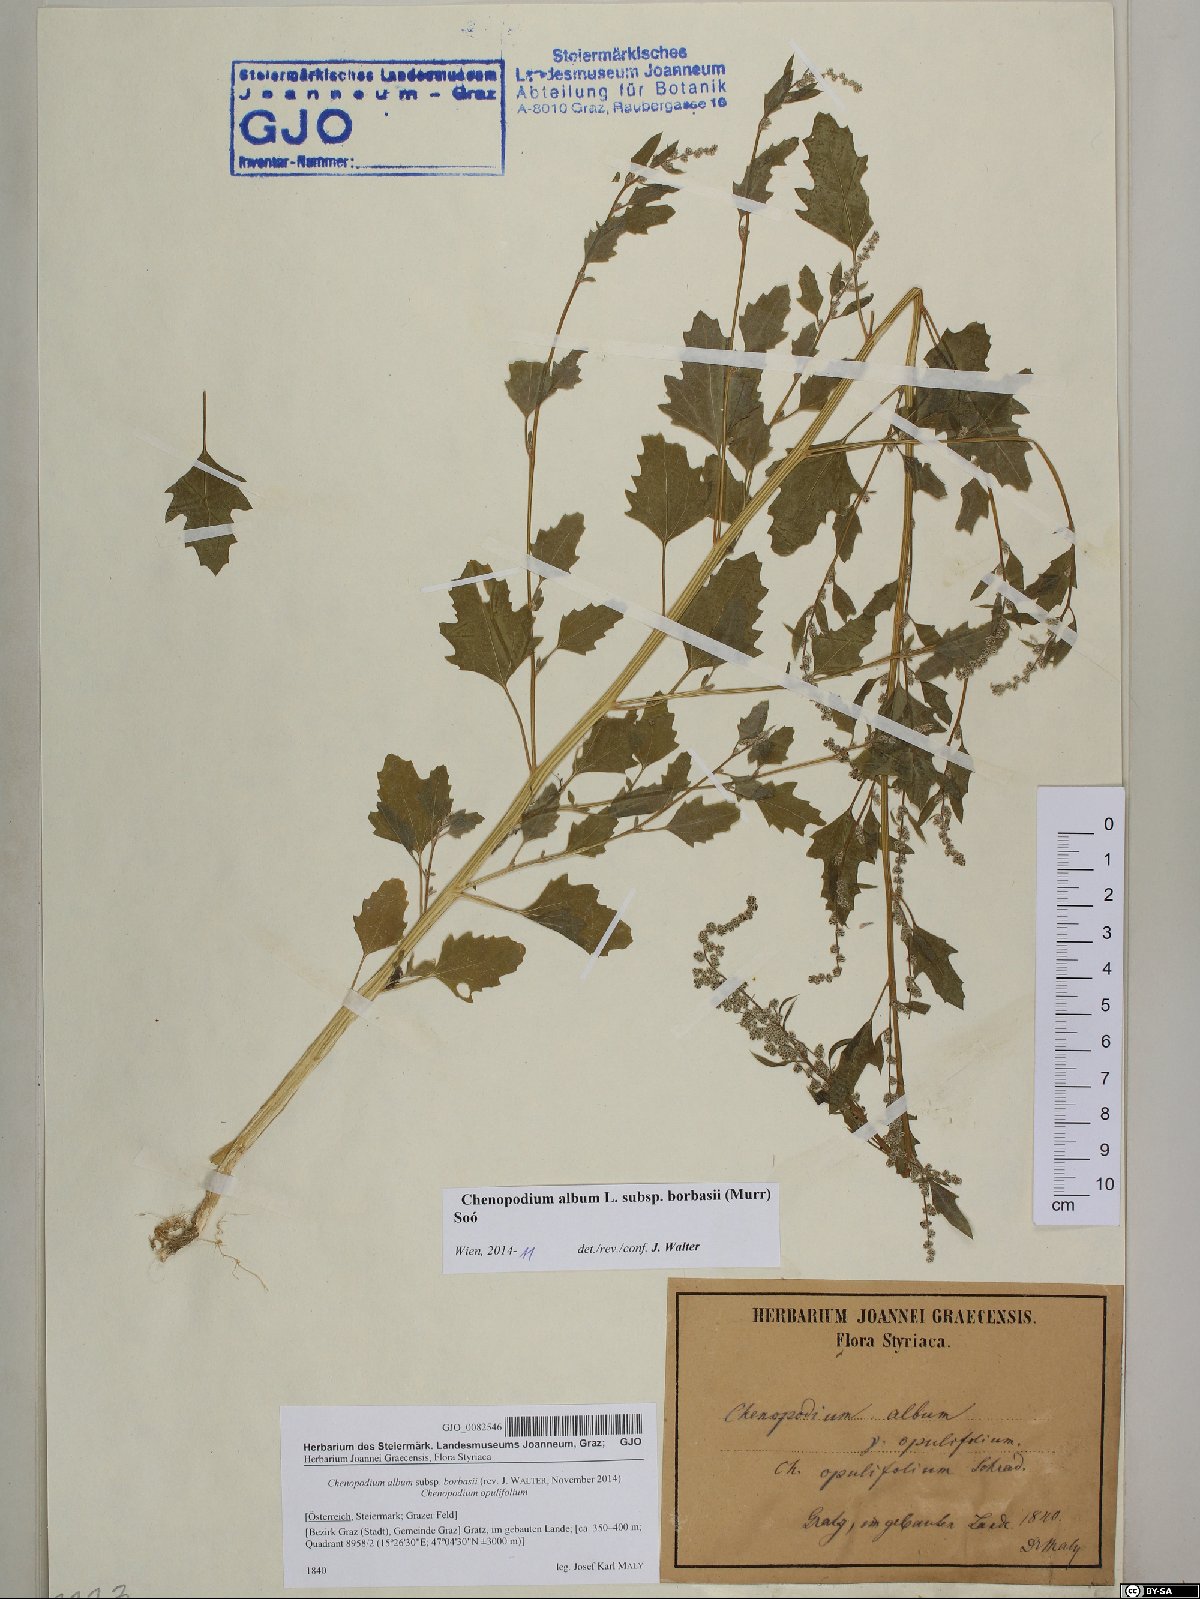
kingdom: Plantae
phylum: Tracheophyta
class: Magnoliopsida
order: Caryophyllales
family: Amaranthaceae
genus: Chenopodium
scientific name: Chenopodium borbasii
